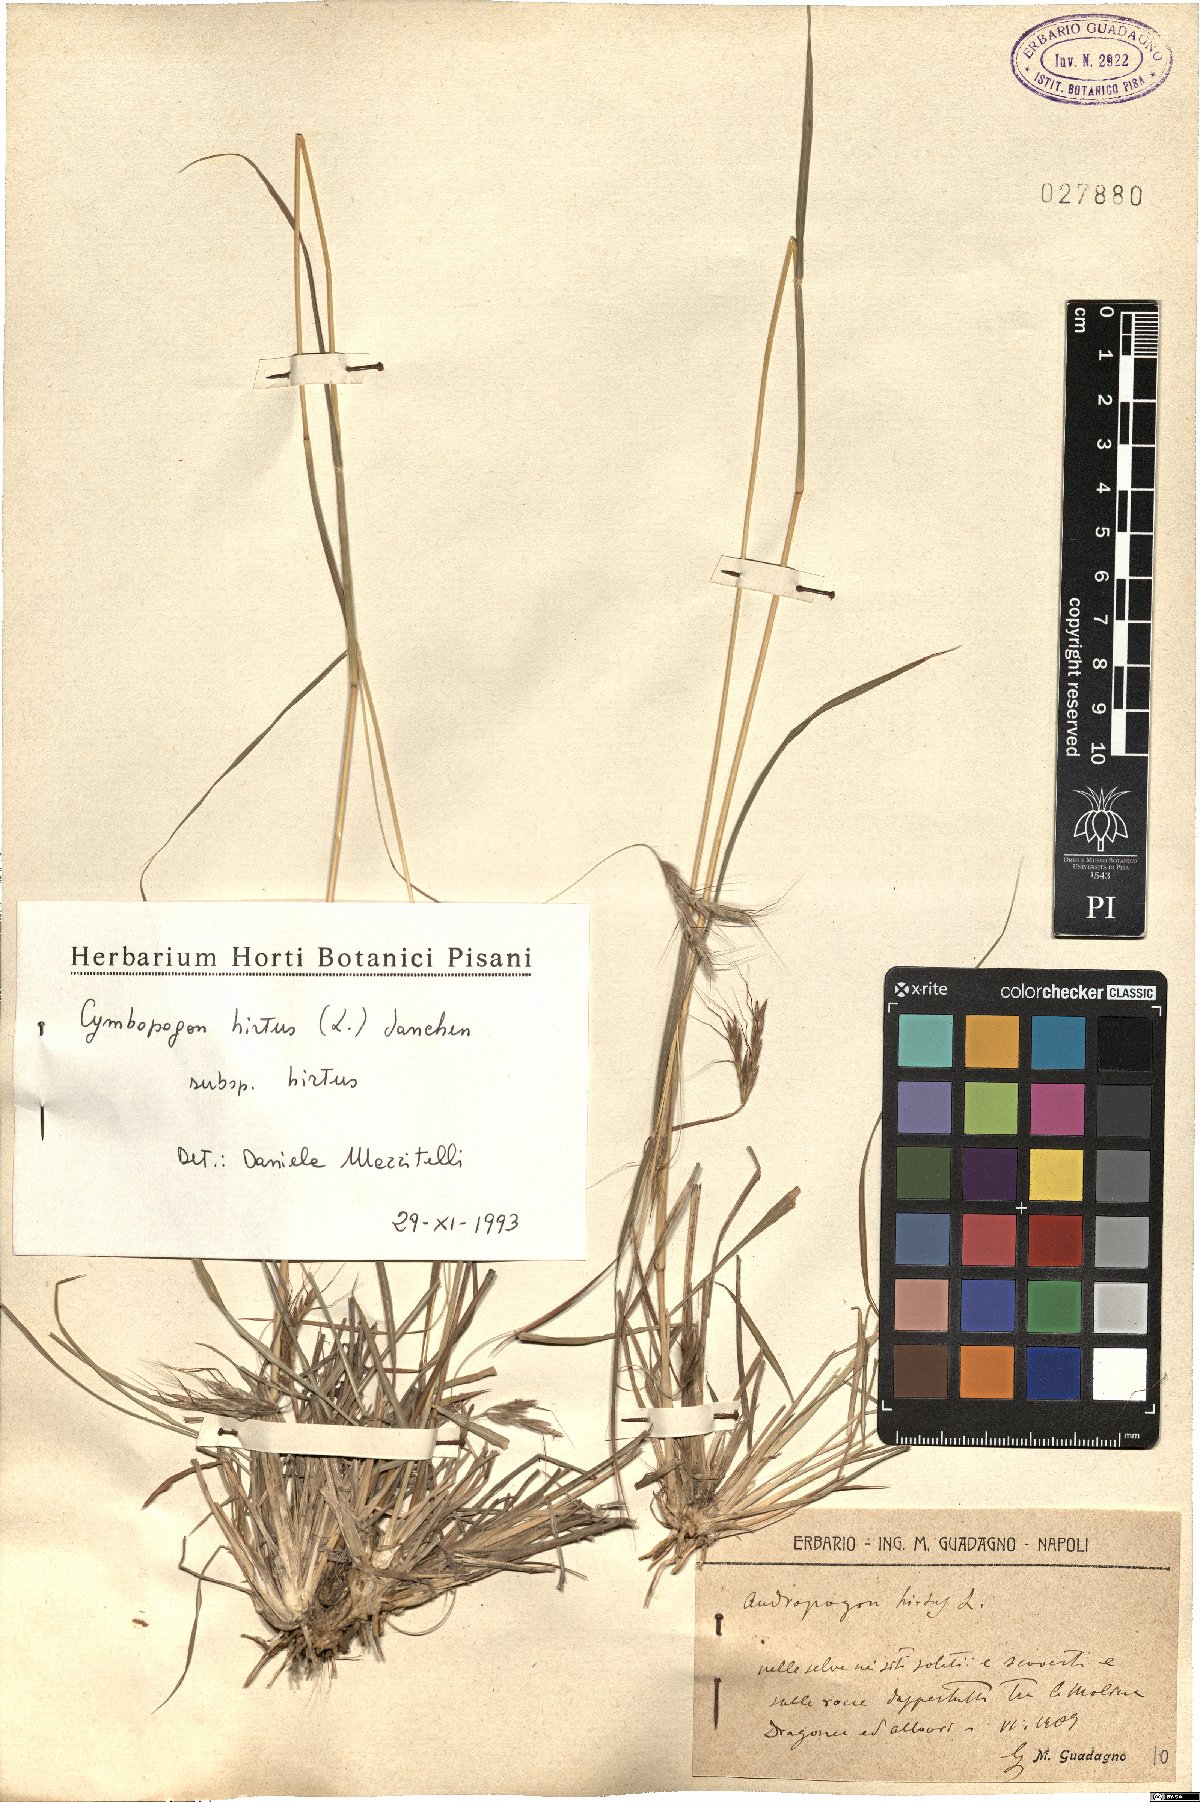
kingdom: Plantae
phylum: Tracheophyta
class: Liliopsida
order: Poales
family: Poaceae
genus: Cymbopogon
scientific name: Cymbopogon hirtus
